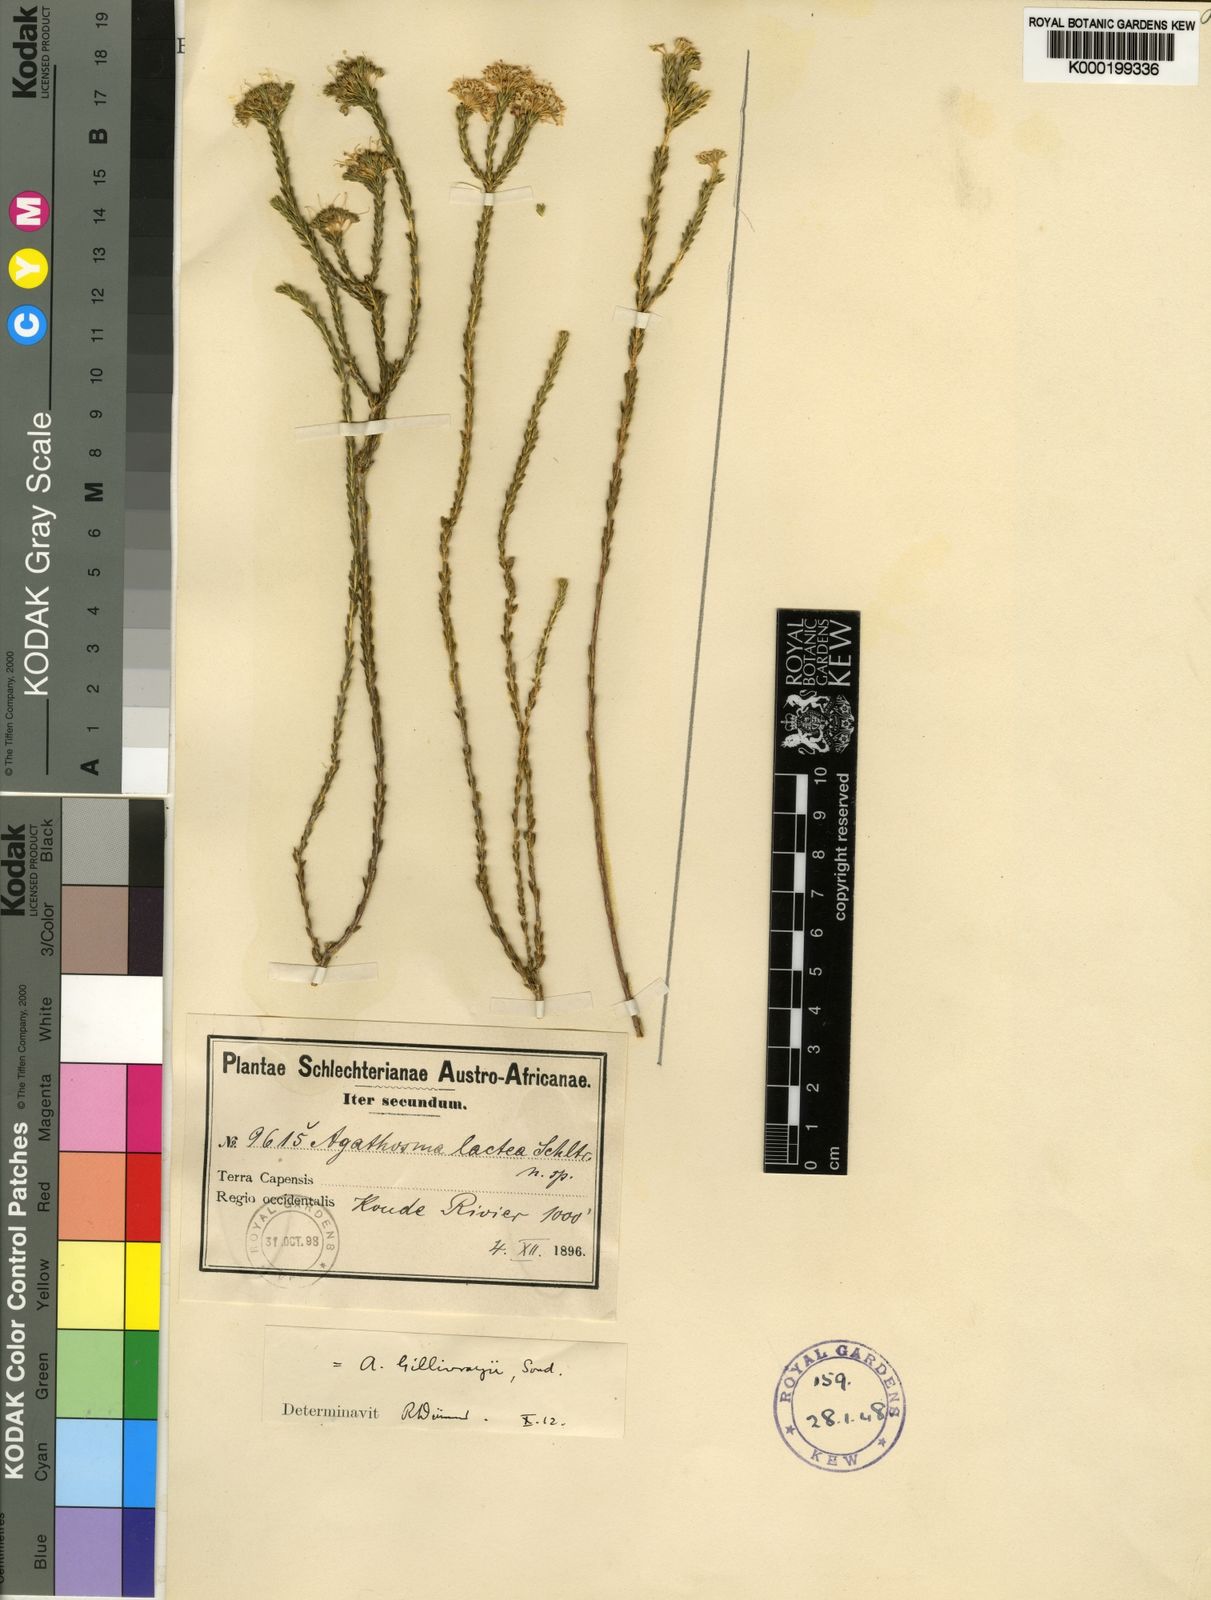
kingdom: Plantae
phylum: Tracheophyta
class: Magnoliopsida
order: Sapindales
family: Rutaceae
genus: Agathosma
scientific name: Agathosma capensis
